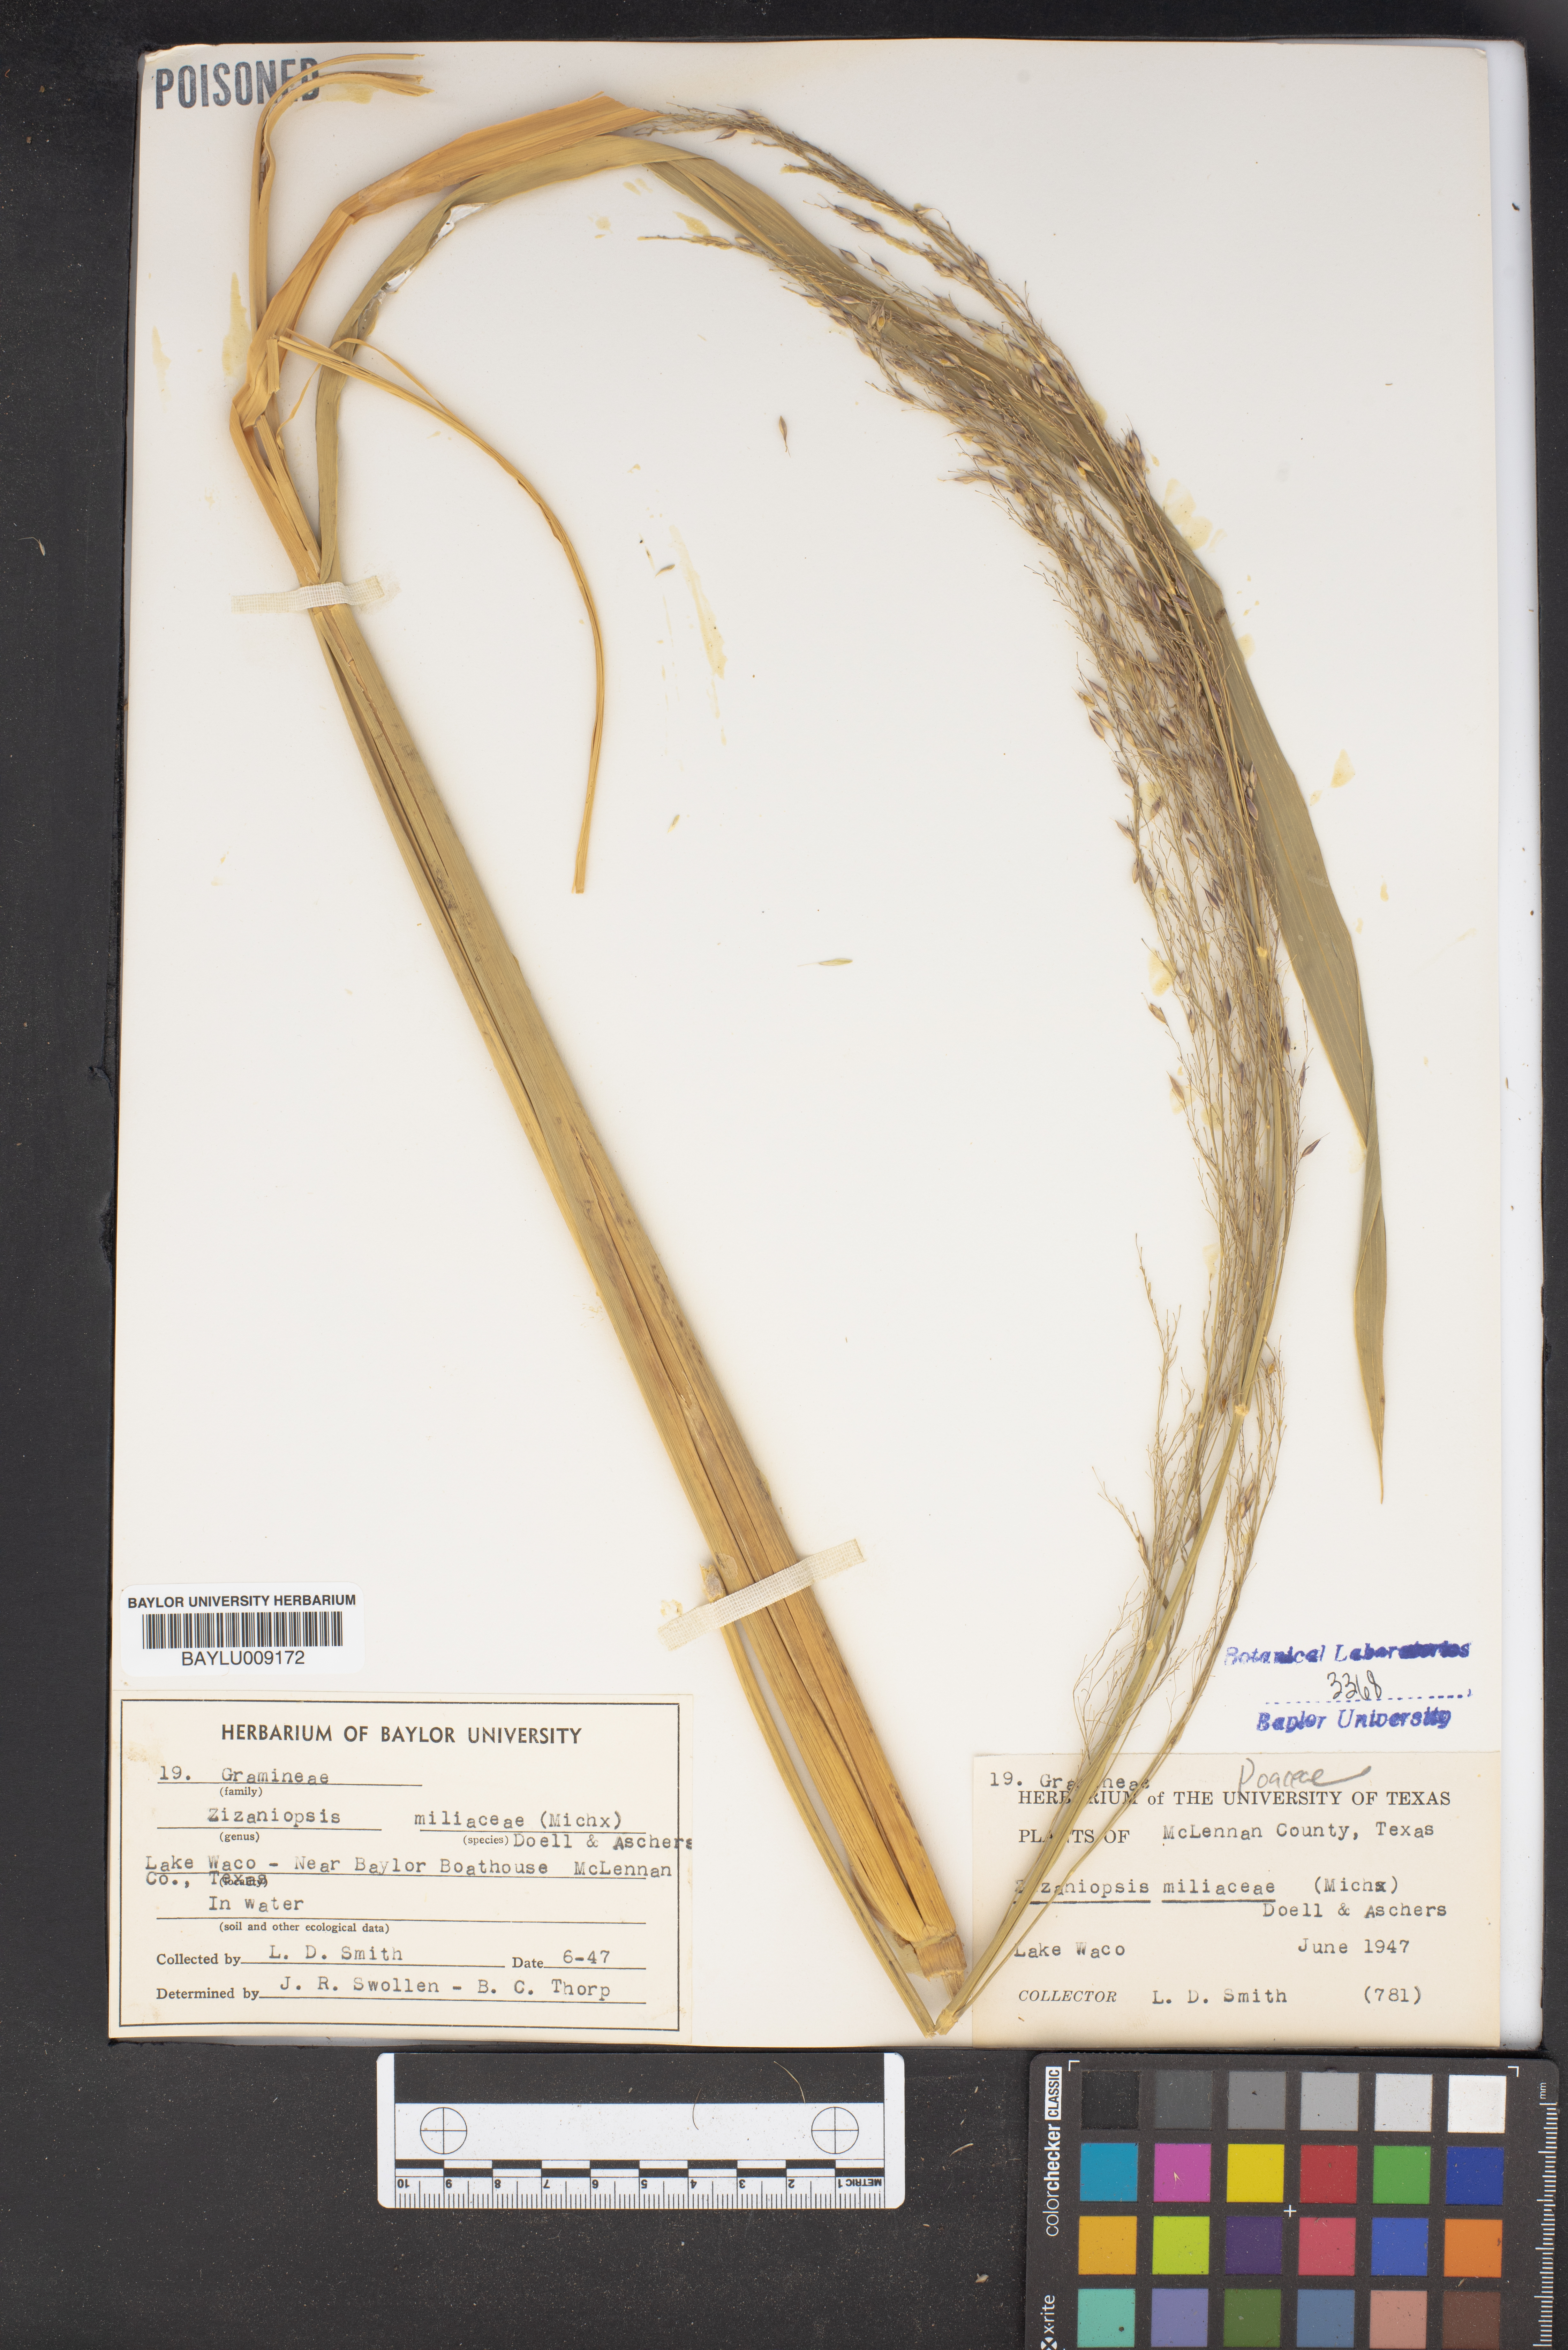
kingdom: Plantae
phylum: Tracheophyta
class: Liliopsida
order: Poales
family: Poaceae
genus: Zizaniopsis
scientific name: Zizaniopsis miliacea
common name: Giant-cutgrass
